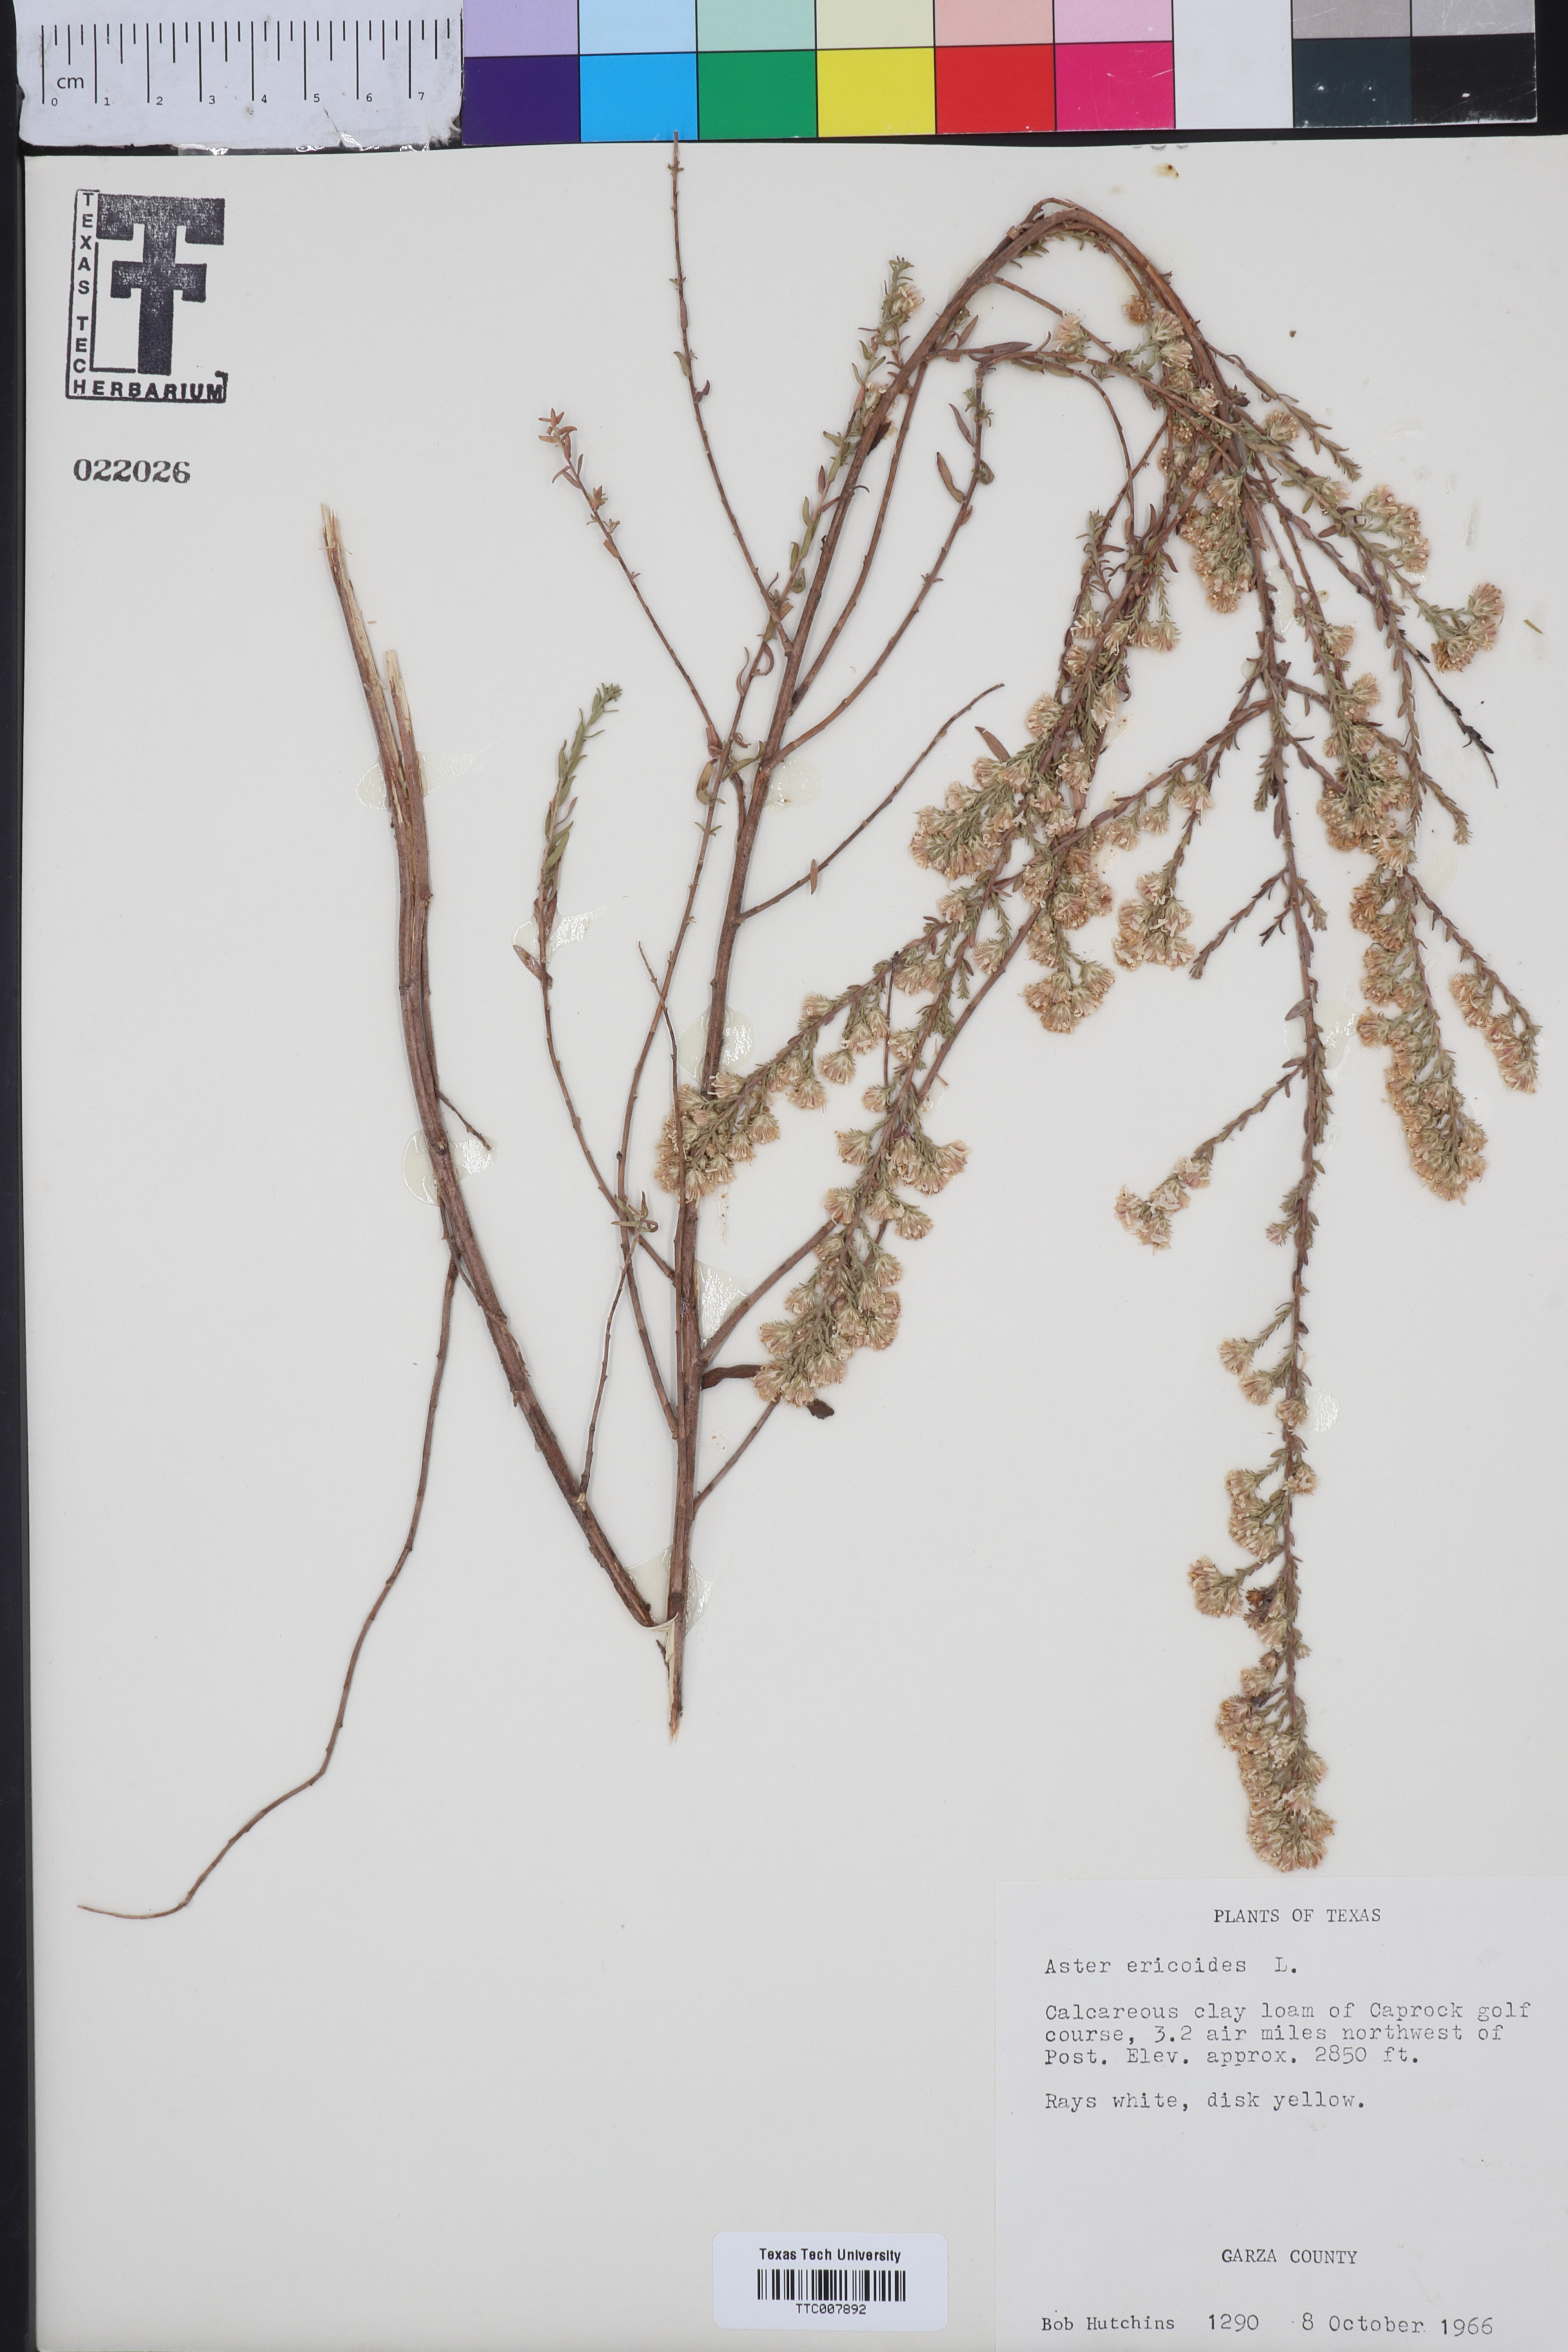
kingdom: Plantae
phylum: Tracheophyta
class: Magnoliopsida
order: Asterales
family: Asteraceae
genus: Symphyotrichum
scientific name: Symphyotrichum ericoides
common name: Heath aster
